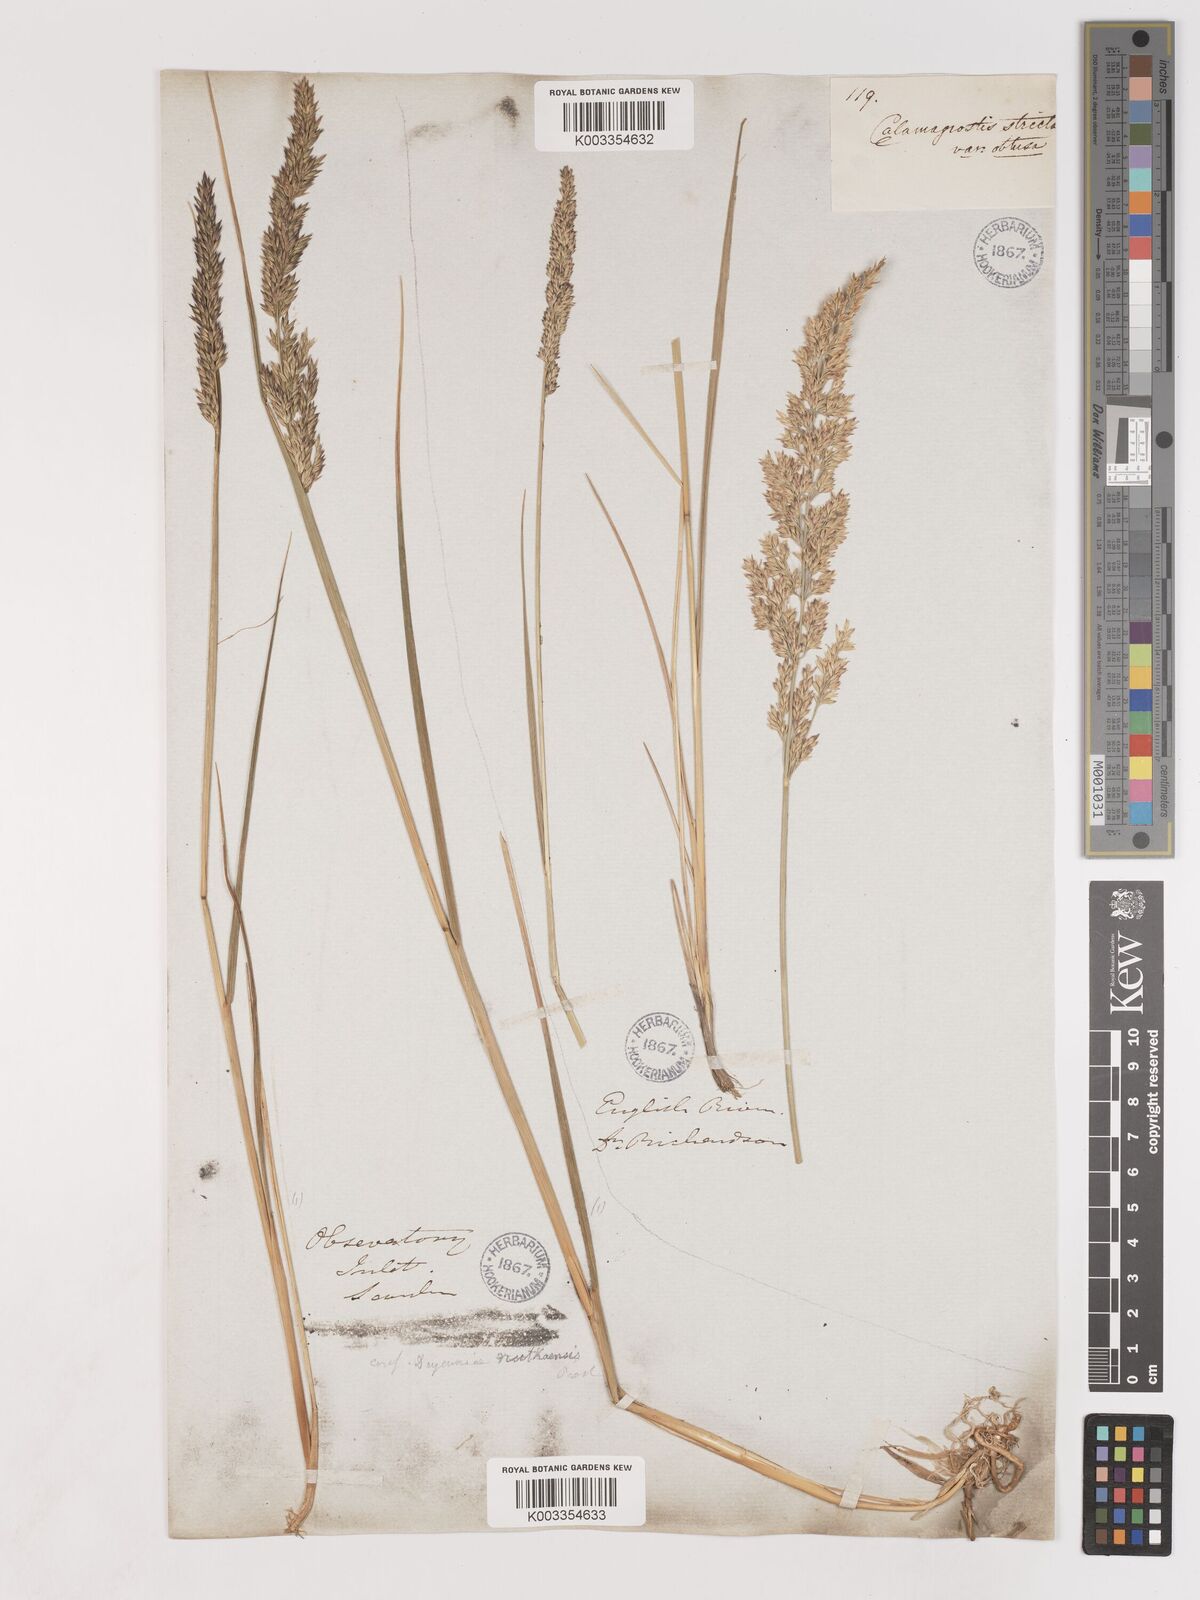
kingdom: Plantae
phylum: Tracheophyta
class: Liliopsida
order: Poales
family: Poaceae
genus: Calamagrostis
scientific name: Calamagrostis nutkaensis
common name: Pacific reed grass
